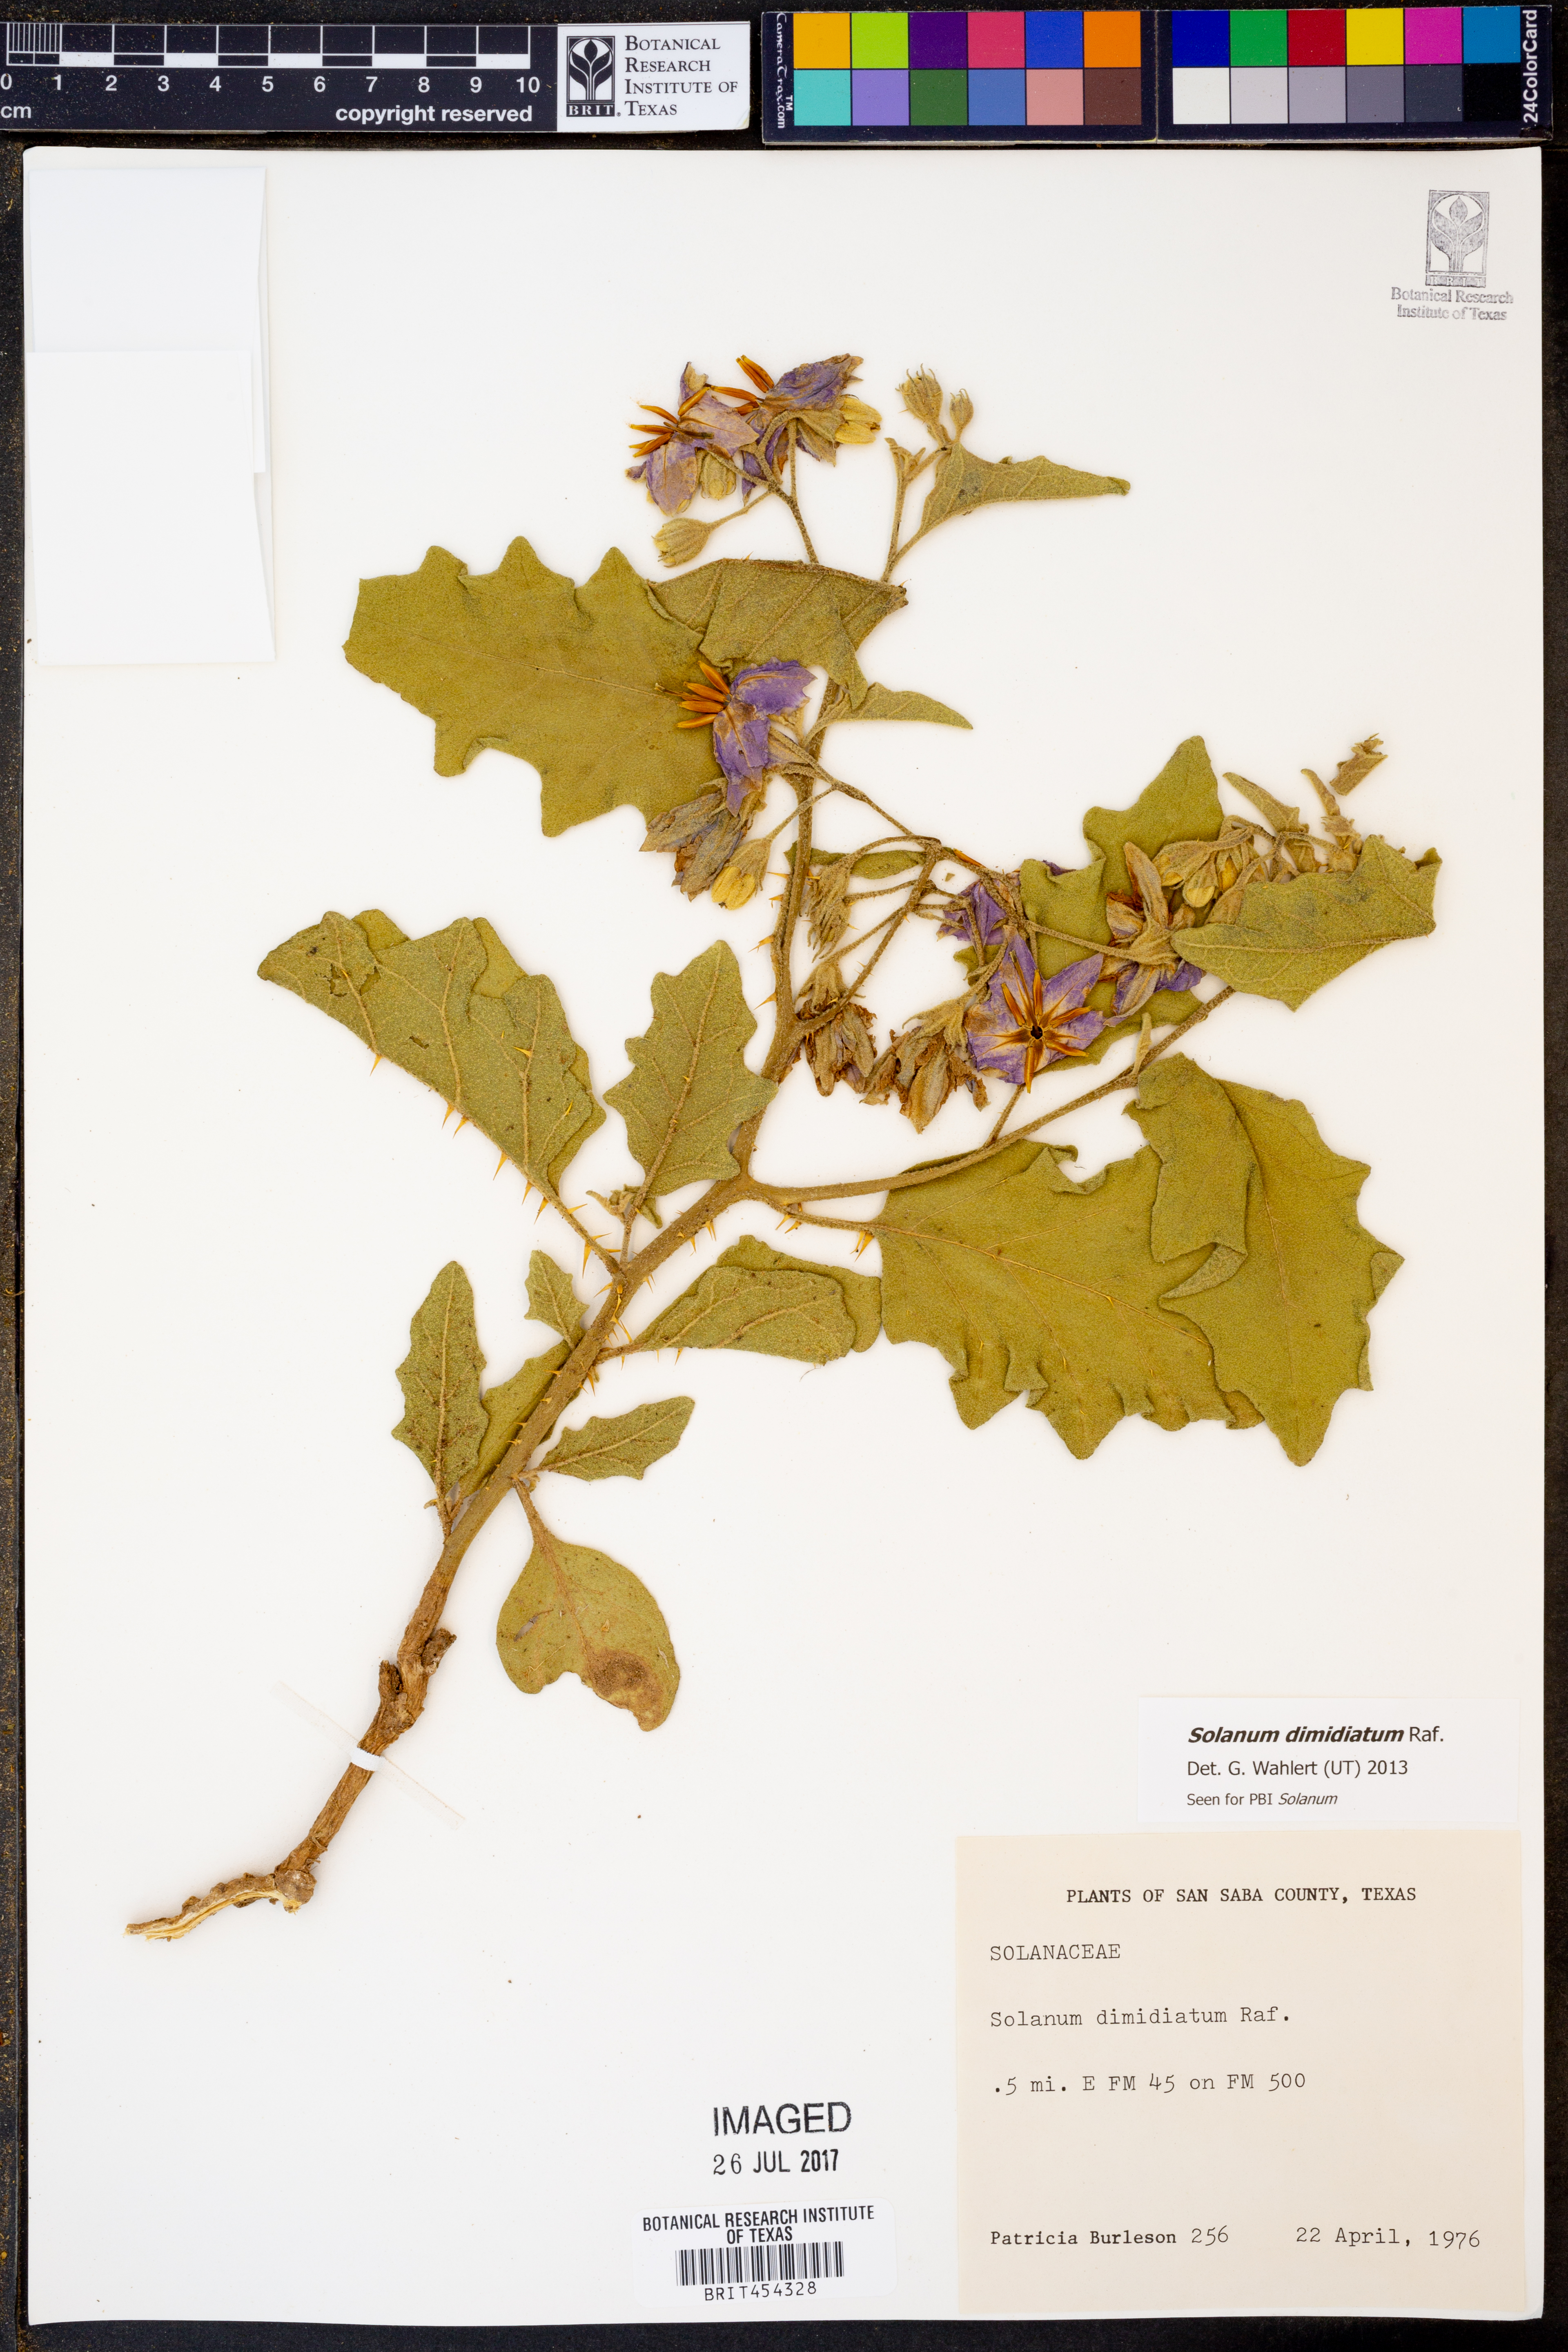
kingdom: Plantae
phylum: Tracheophyta
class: Magnoliopsida
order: Solanales
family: Solanaceae
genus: Solanum
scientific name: Solanum dimidiatum
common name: Carolina horse-nettle
